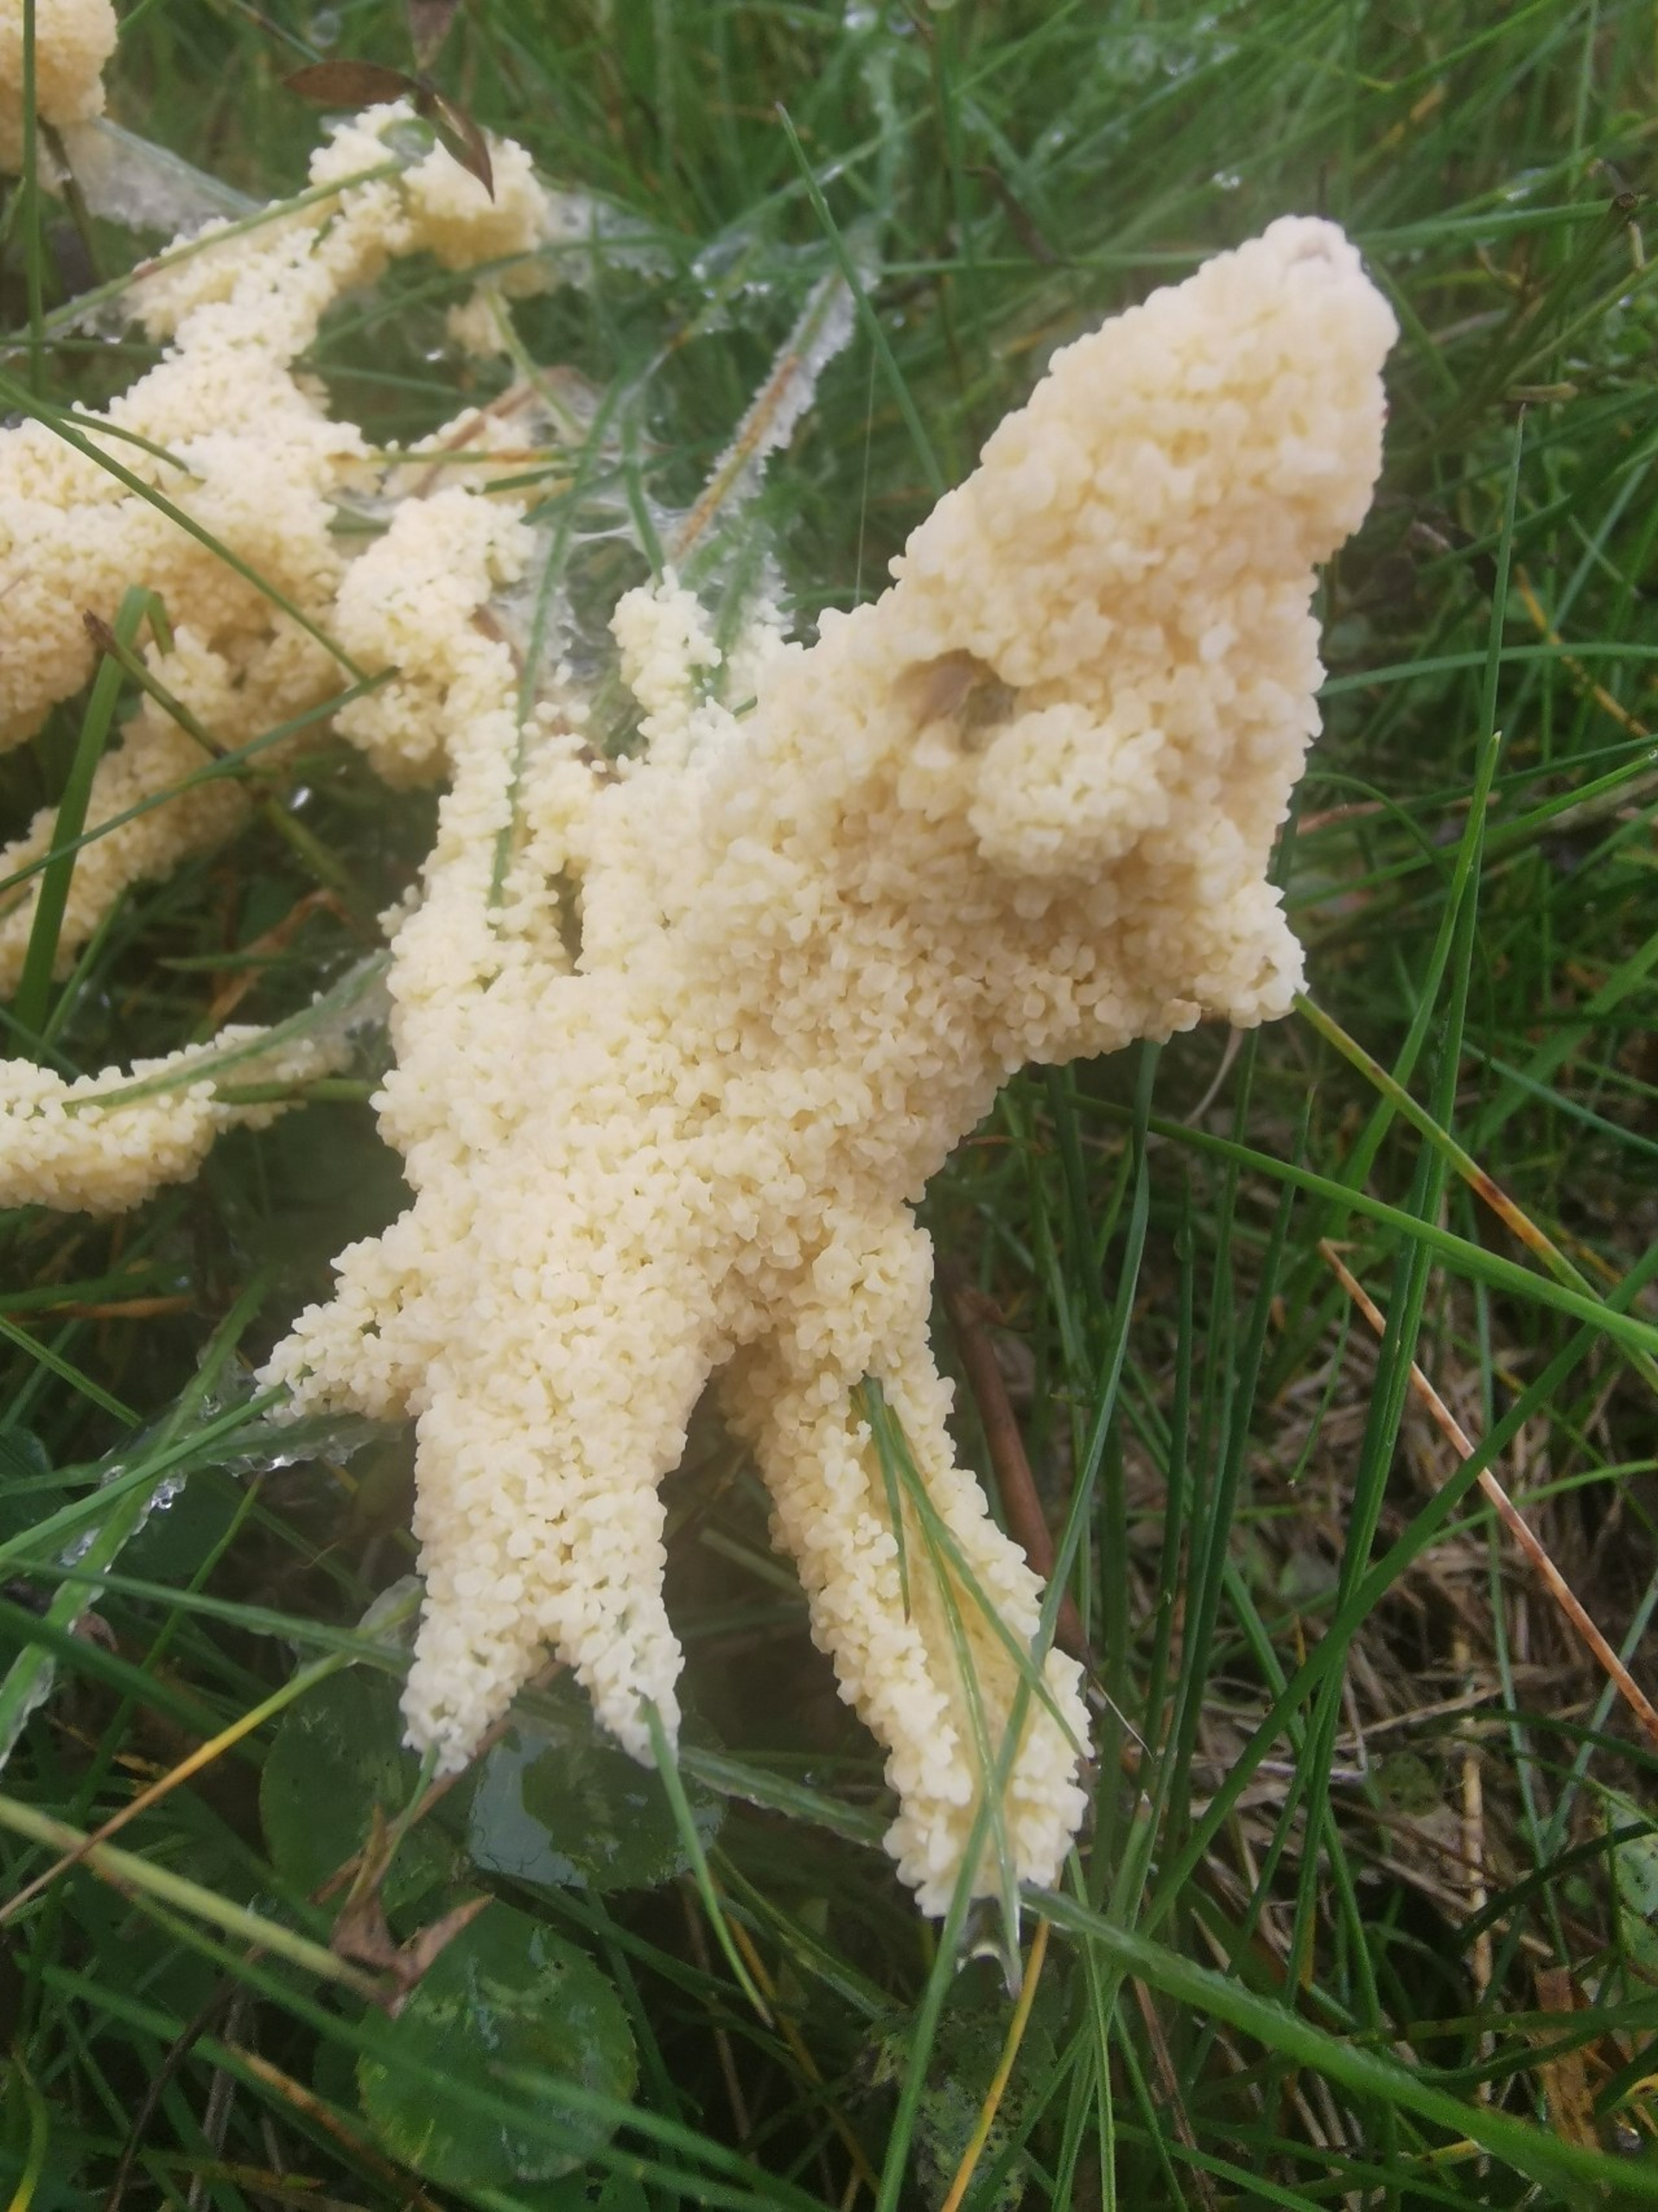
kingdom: Protozoa
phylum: Mycetozoa
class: Myxomycetes
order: Physarales
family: Didymiaceae
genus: Mucilago
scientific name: Mucilago crustacea
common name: Urteskum
